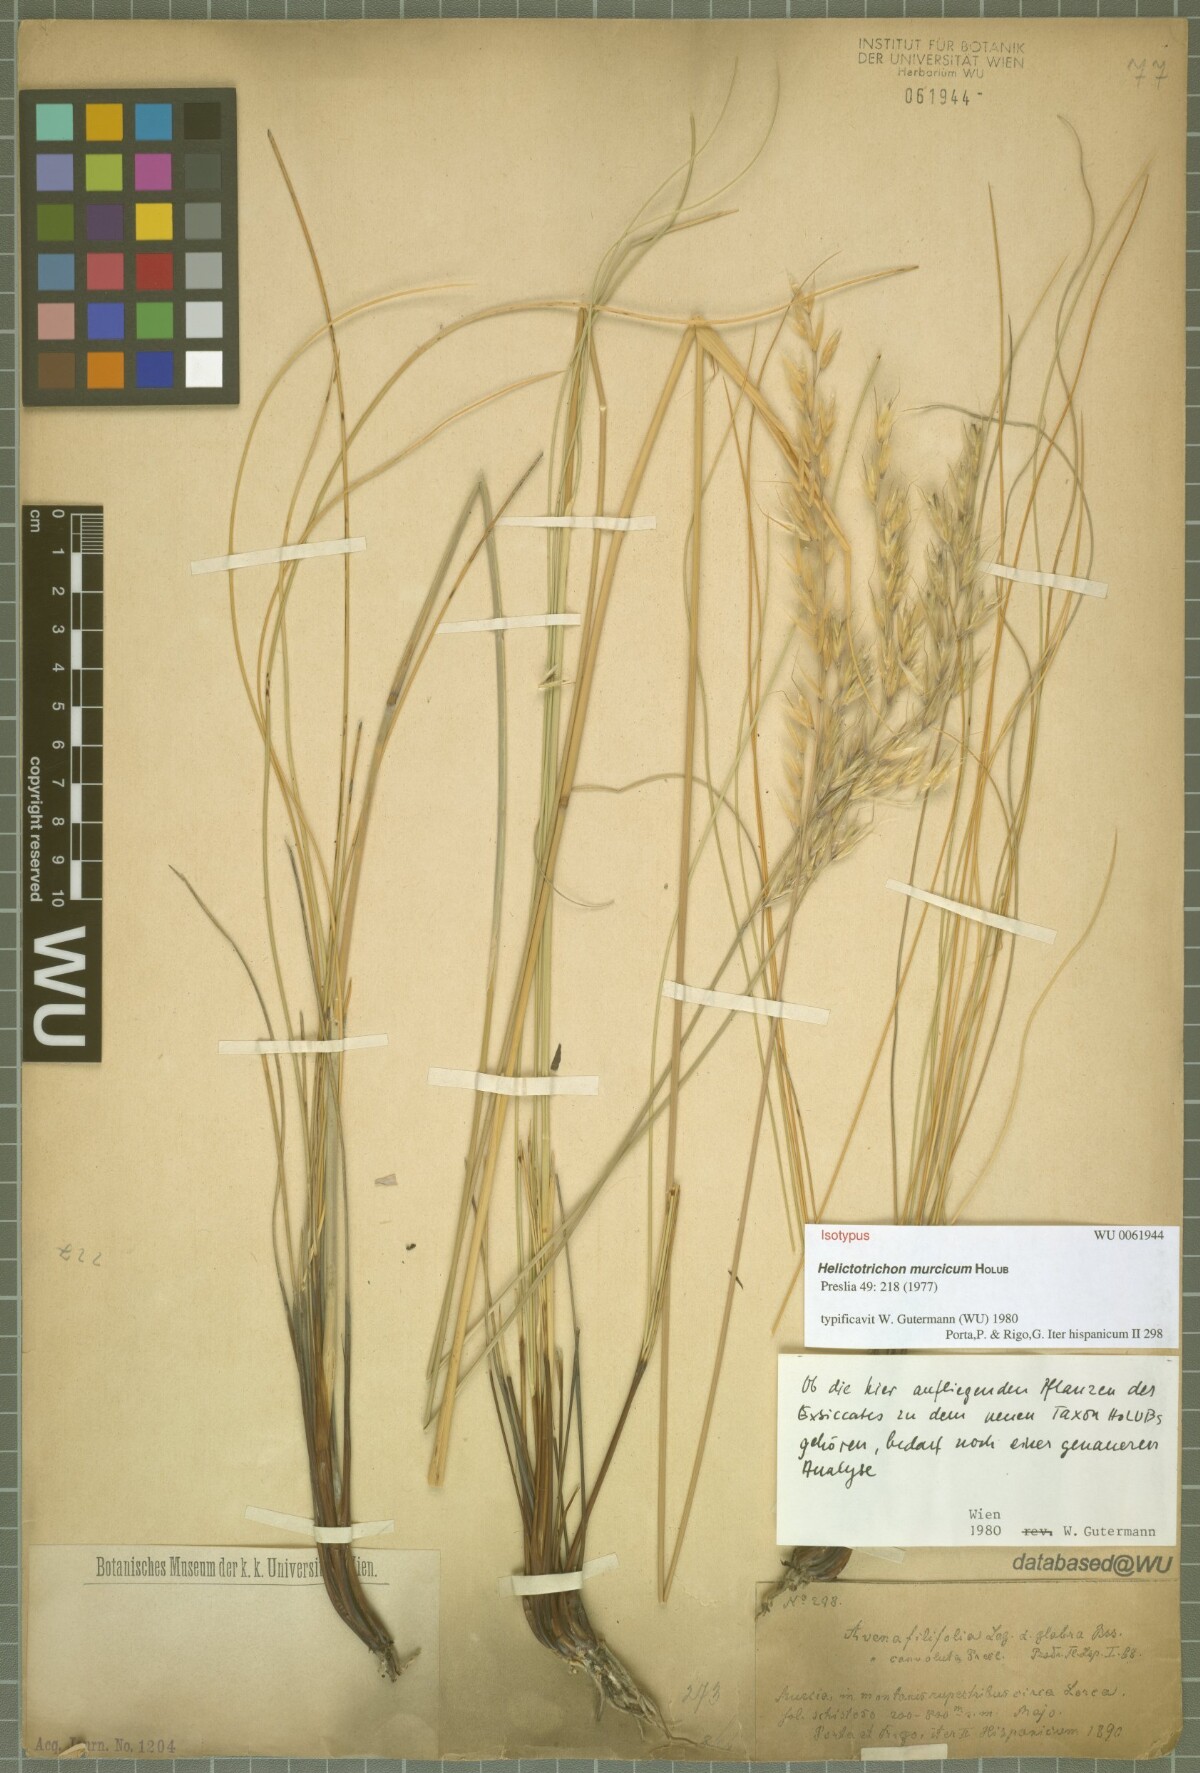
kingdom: Plantae
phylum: Tracheophyta
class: Liliopsida
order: Poales
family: Poaceae
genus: Helictotrichon
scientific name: Helictotrichon murcicum
